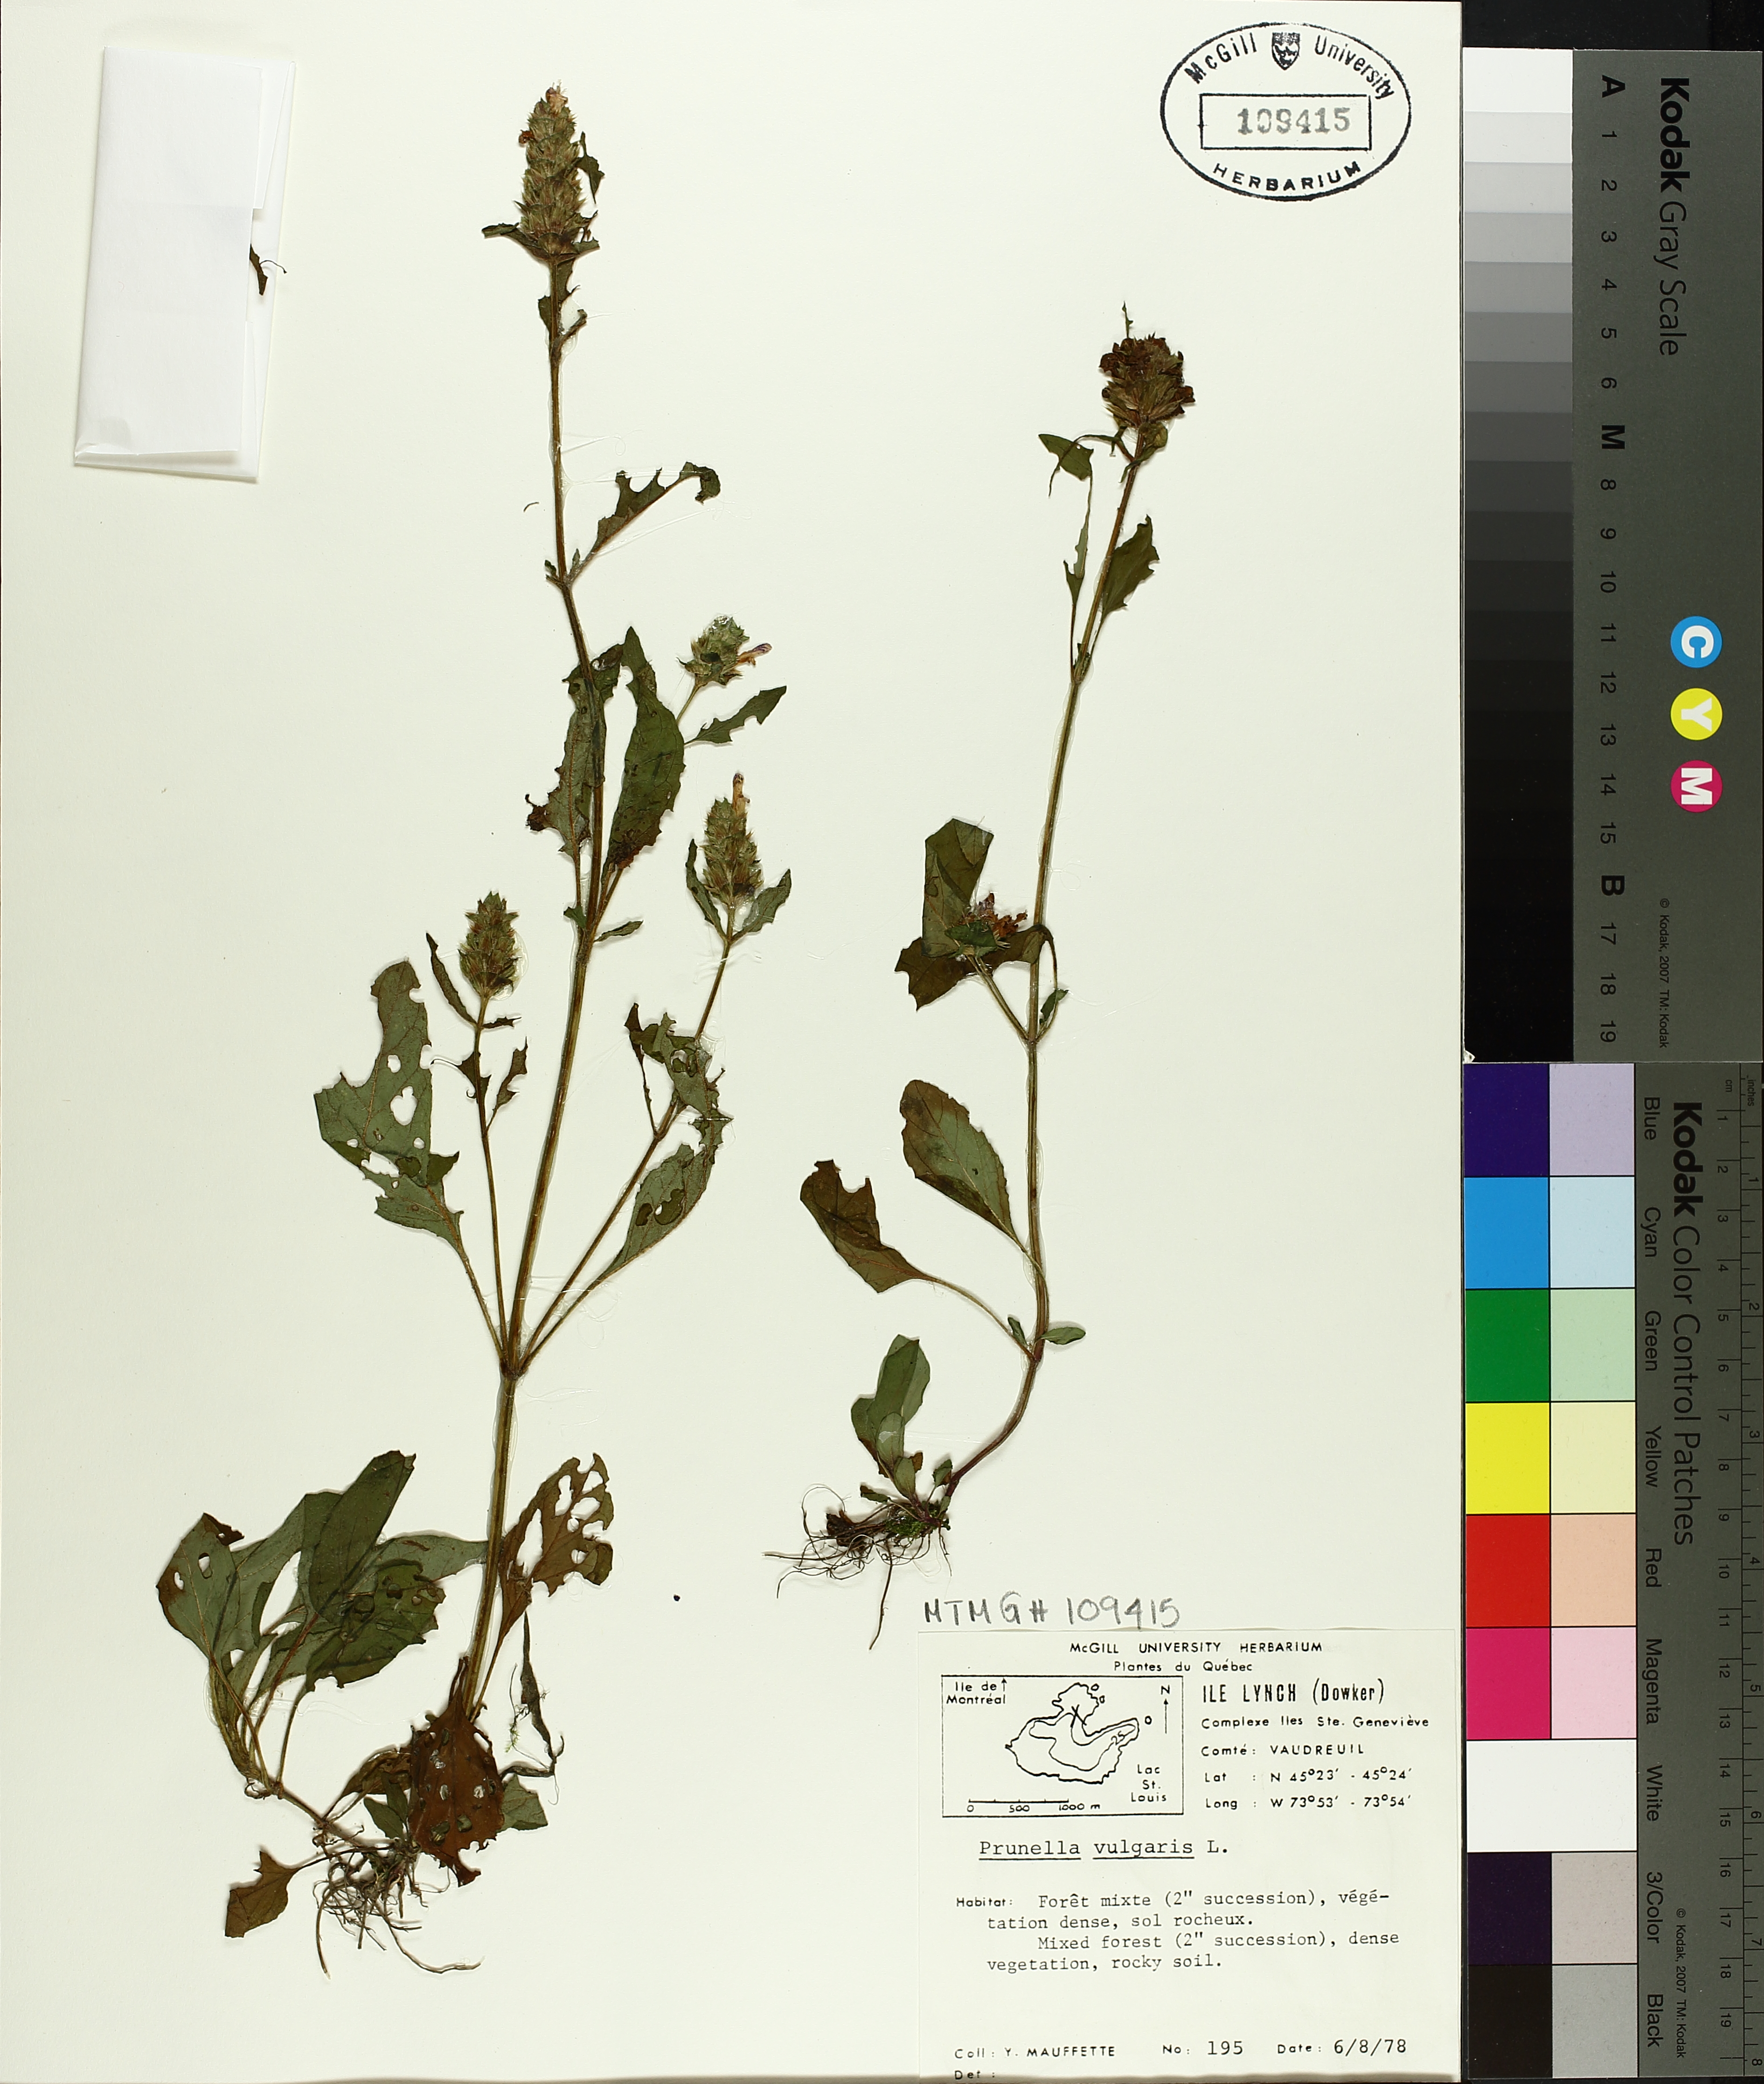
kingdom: Plantae
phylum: Tracheophyta
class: Magnoliopsida
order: Lamiales
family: Lamiaceae
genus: Prunella
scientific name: Prunella vulgaris
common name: Heal-all
